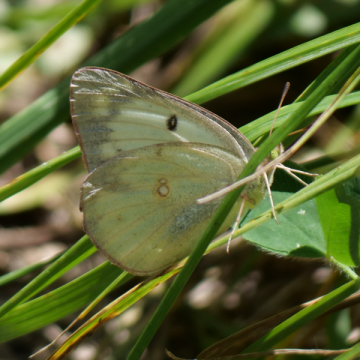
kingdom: Animalia
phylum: Arthropoda
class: Insecta
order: Lepidoptera
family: Pieridae
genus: Colias
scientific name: Colias philodice
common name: Clouded Sulphur
